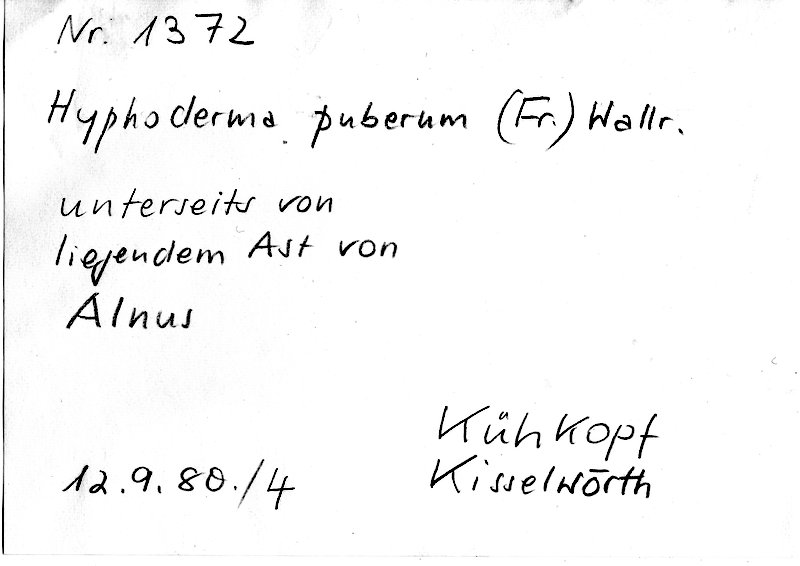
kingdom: Fungi
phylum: Basidiomycota
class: Agaricomycetes
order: Hymenochaetales
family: Rickenellaceae
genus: Peniophorella
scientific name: Peniophorella pubera
